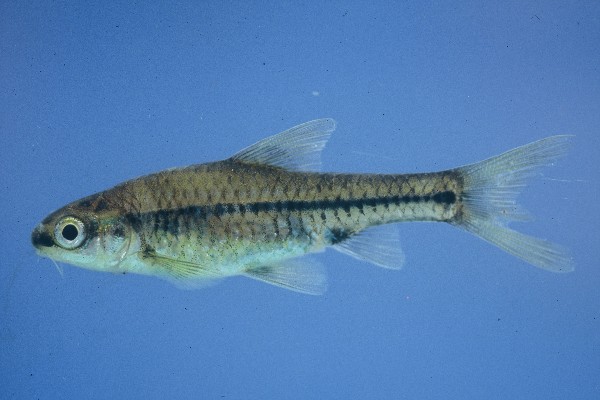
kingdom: Animalia
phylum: Chordata
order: Cypriniformes
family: Cyprinidae
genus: Barbus
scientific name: Barbus
